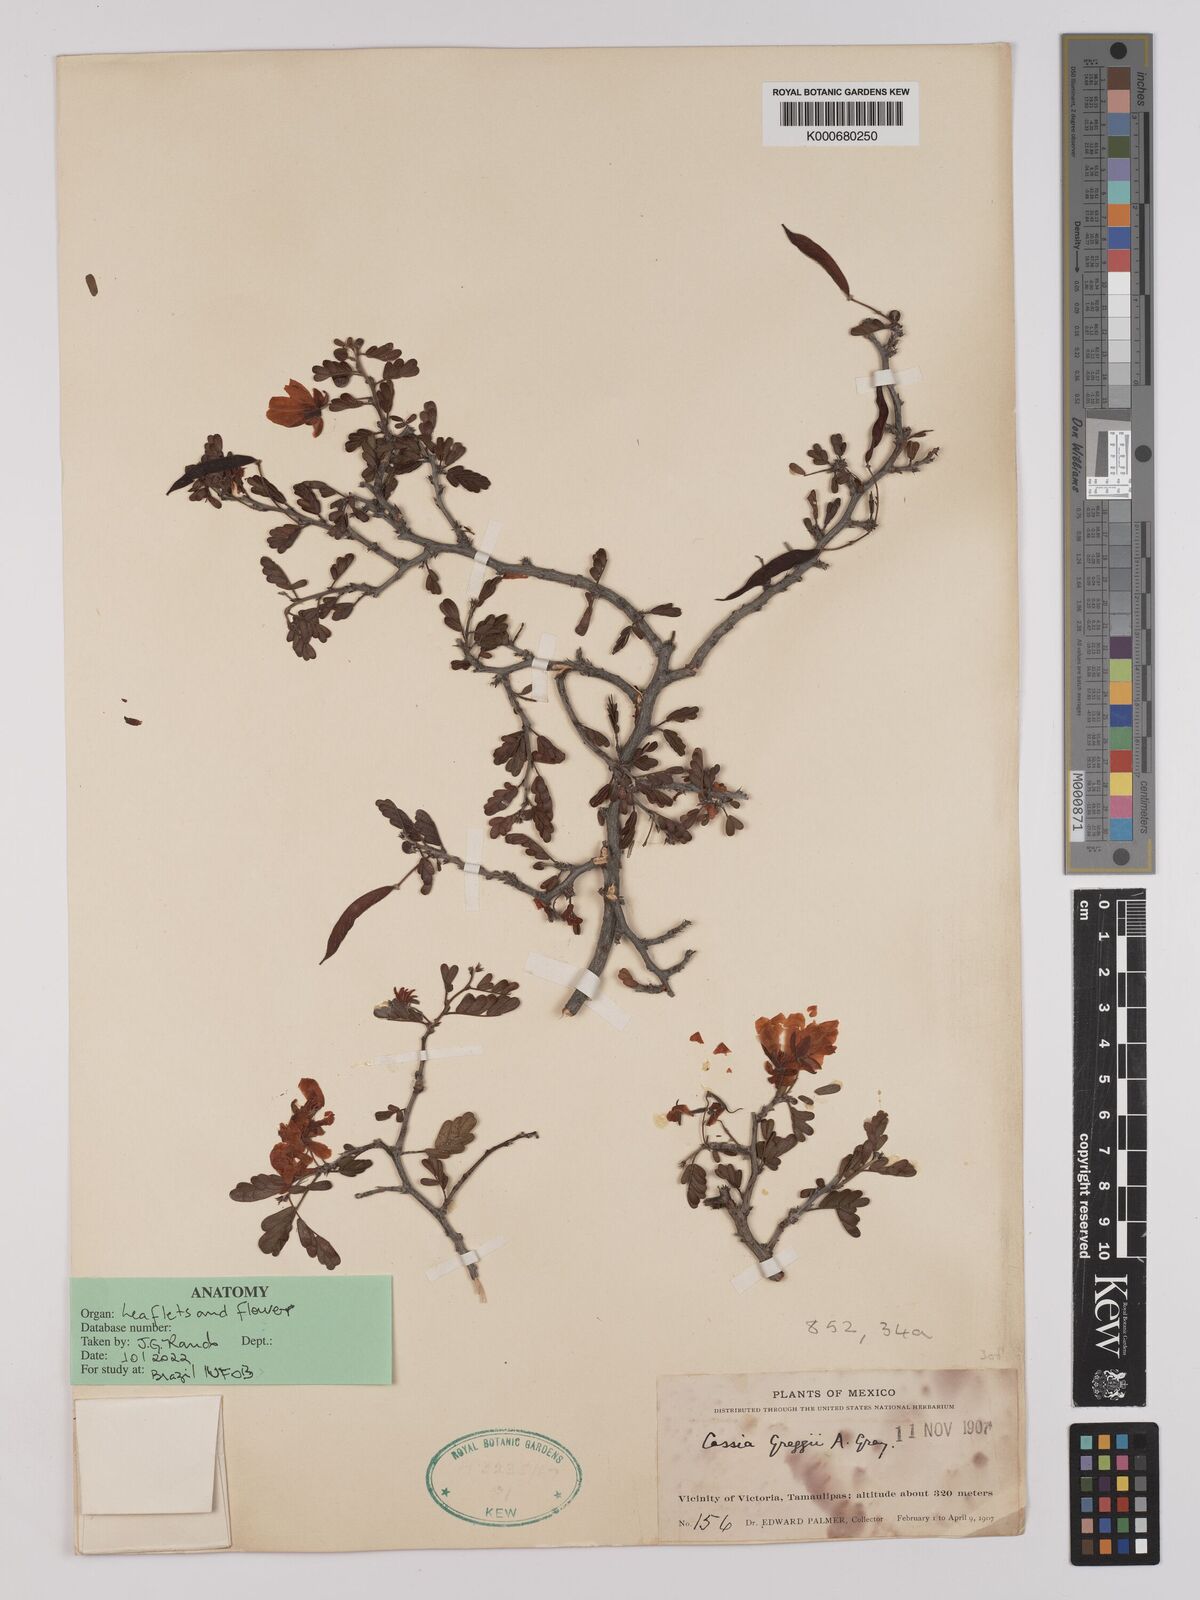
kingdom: Plantae
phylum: Tracheophyta
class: Magnoliopsida
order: Fabales
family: Fabaceae
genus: Chamaecrista
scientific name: Chamaecrista greggii
